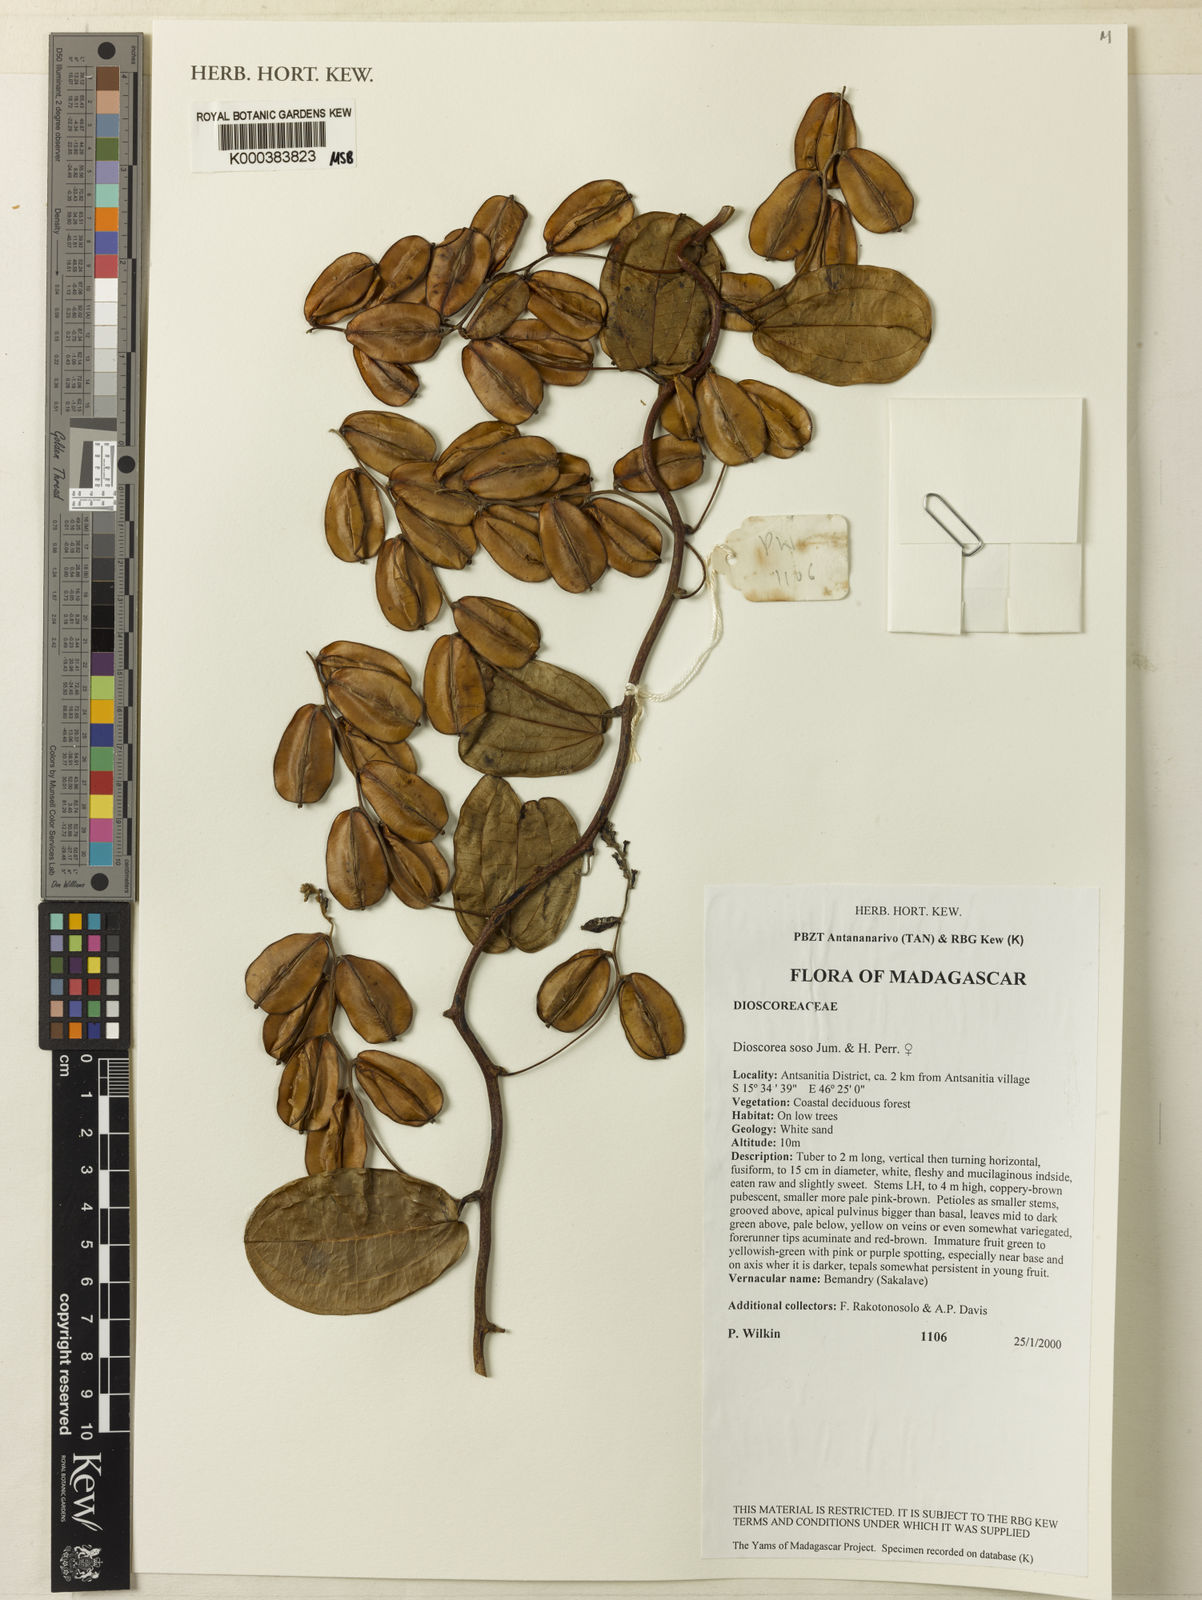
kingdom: Plantae
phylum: Tracheophyta
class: Liliopsida
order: Dioscoreales
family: Dioscoreaceae
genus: Dioscorea
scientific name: Dioscorea
